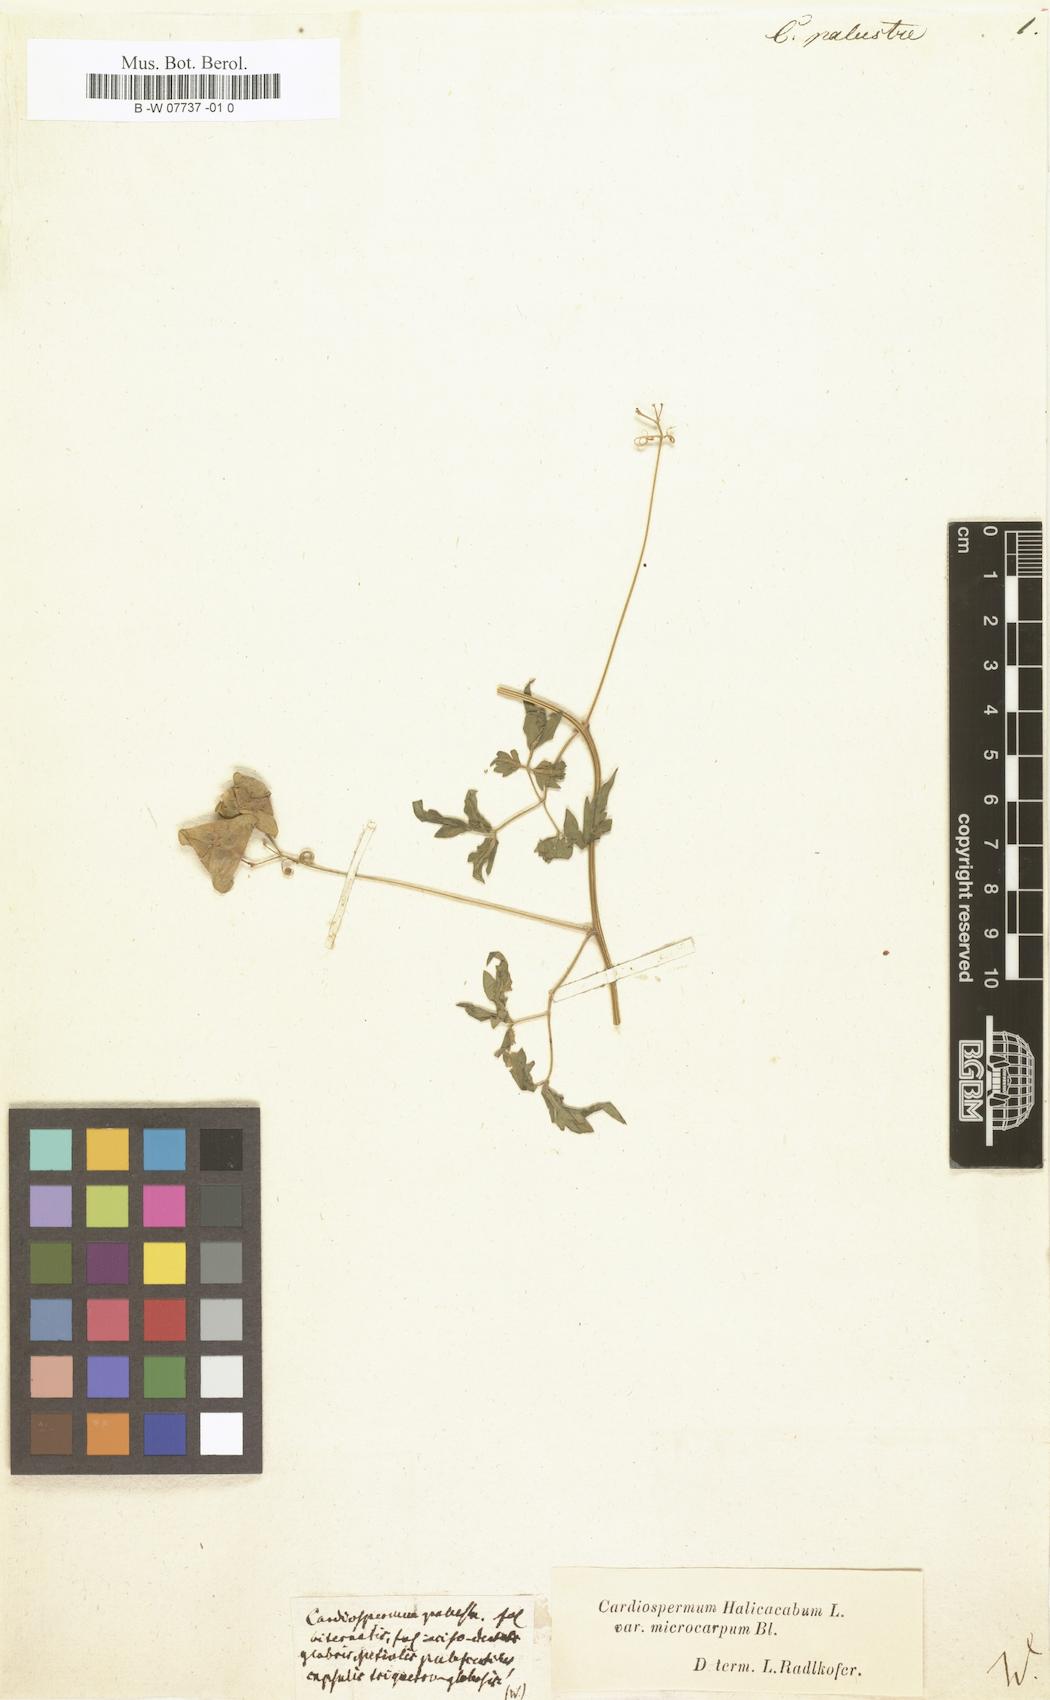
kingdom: Plantae
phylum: Tracheophyta
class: Magnoliopsida
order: Sapindales
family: Sapindaceae
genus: Cardiospermum
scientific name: Cardiospermum
